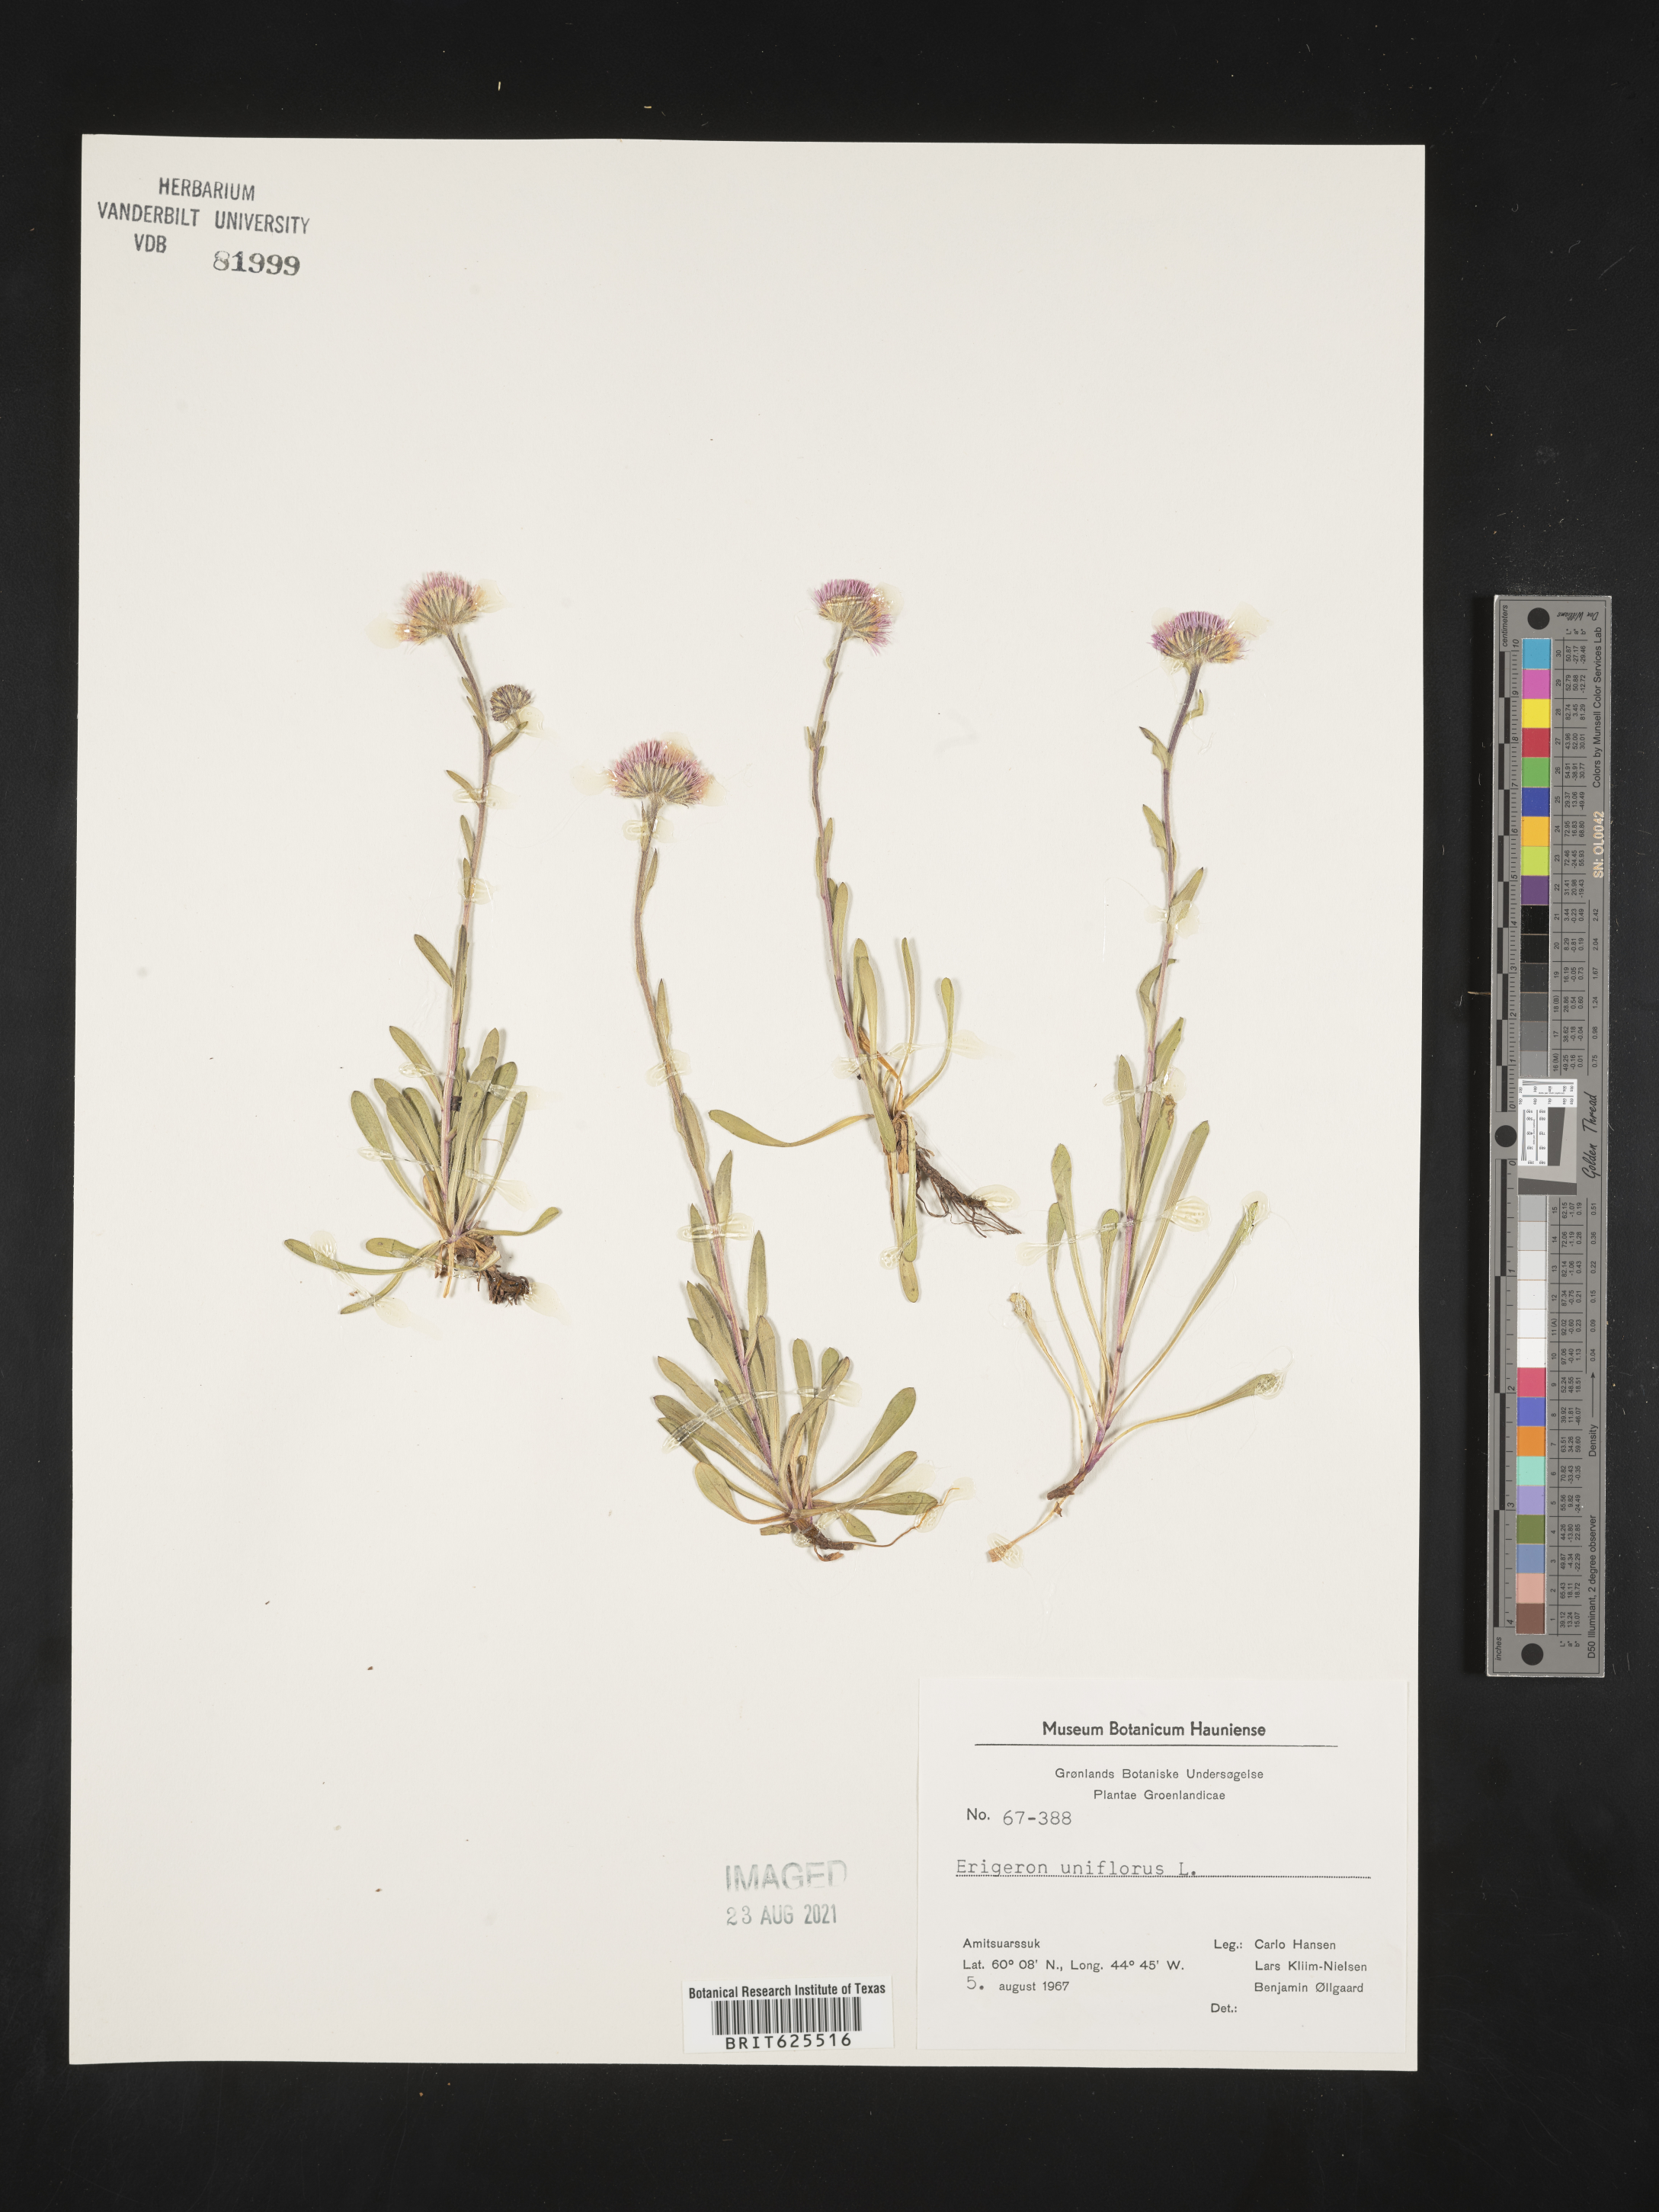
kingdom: Plantae
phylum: Tracheophyta
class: Magnoliopsida
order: Asterales
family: Asteraceae
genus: Erigeron
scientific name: Erigeron pulchellus
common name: Hairy fleabane
